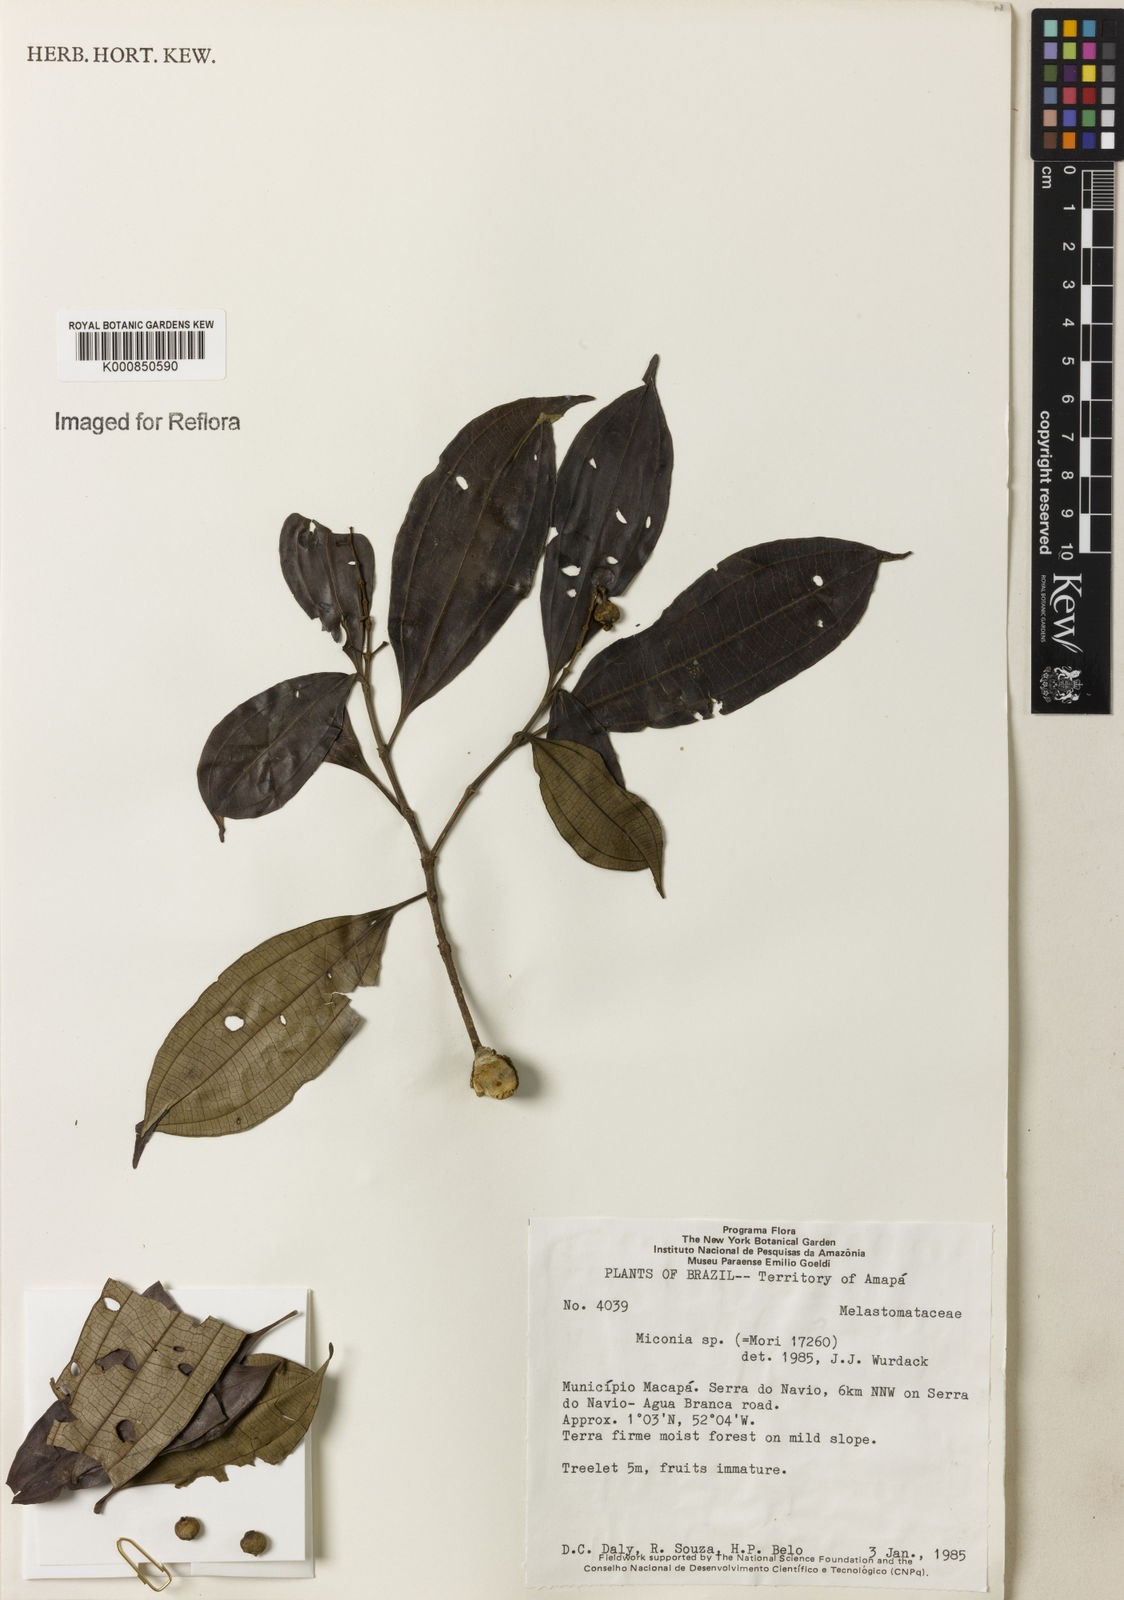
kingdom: Plantae
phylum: Tracheophyta
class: Magnoliopsida
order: Myrtales
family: Melastomataceae
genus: Miconia
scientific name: Miconia
